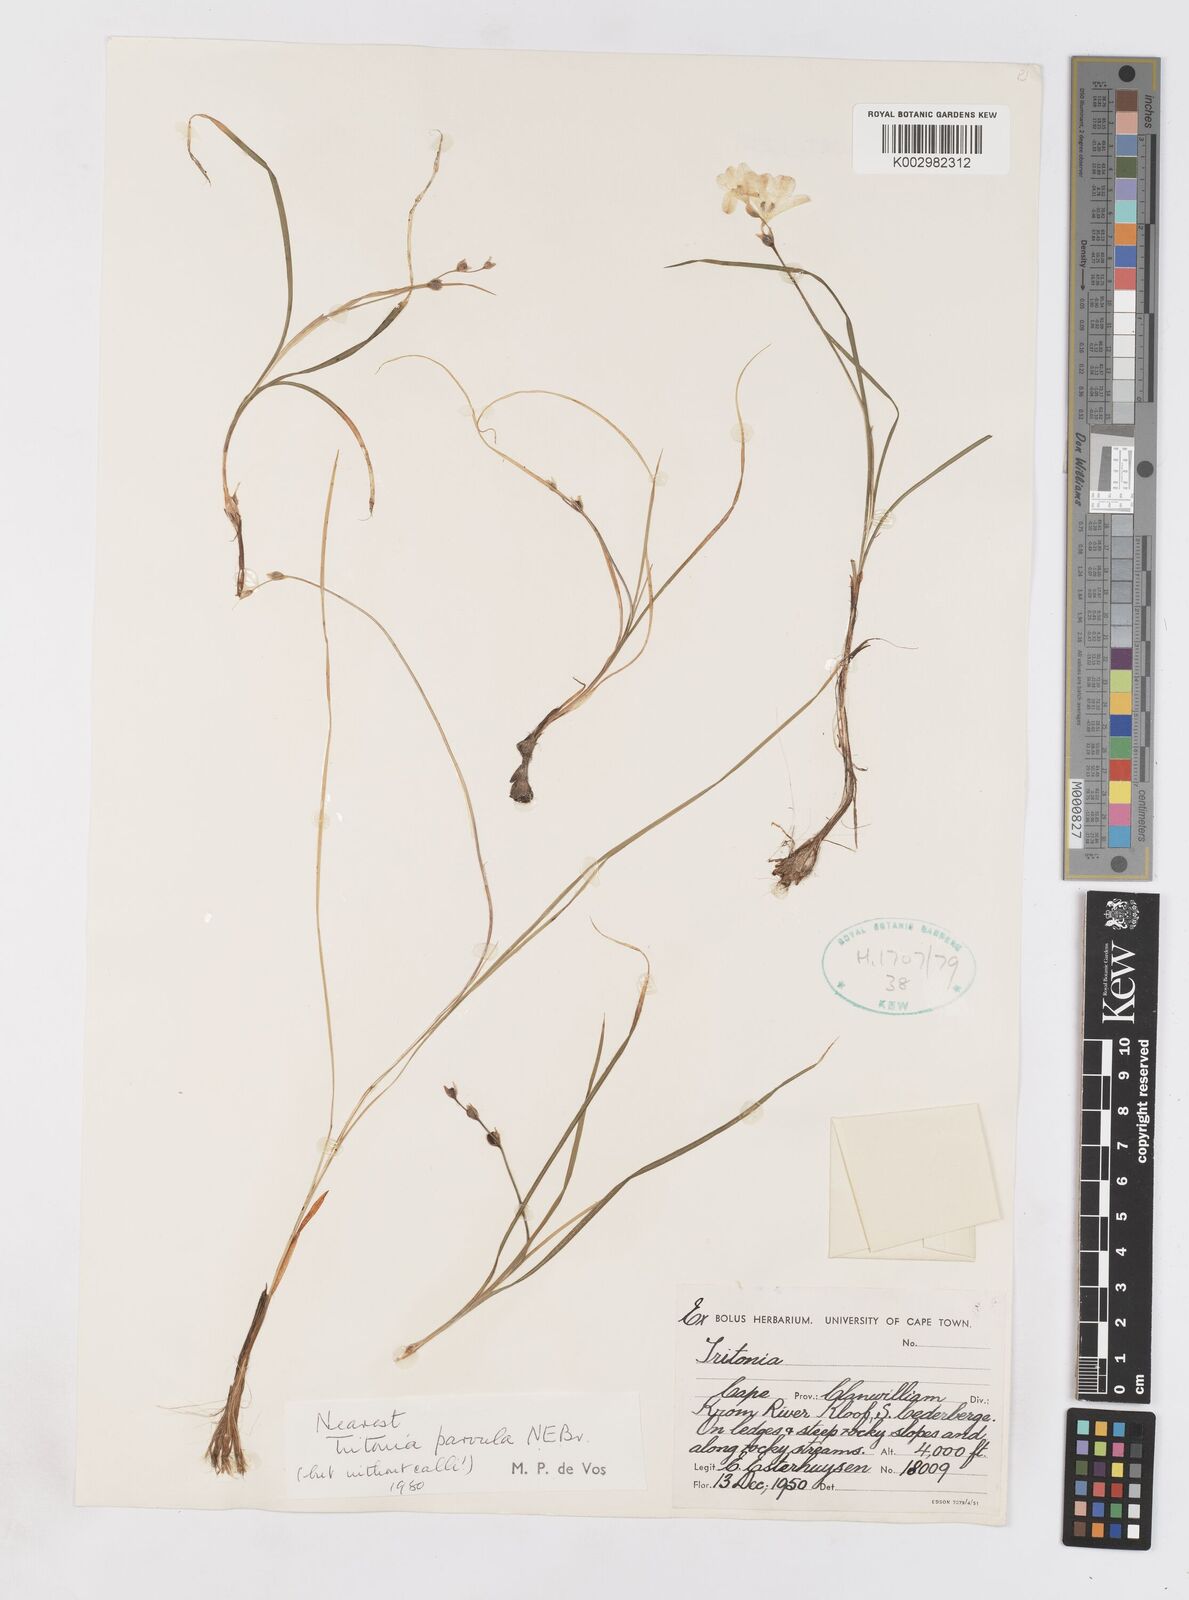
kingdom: Plantae
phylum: Tracheophyta
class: Liliopsida
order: Asparagales
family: Iridaceae
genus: Tritonia
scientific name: Tritonia parvula
